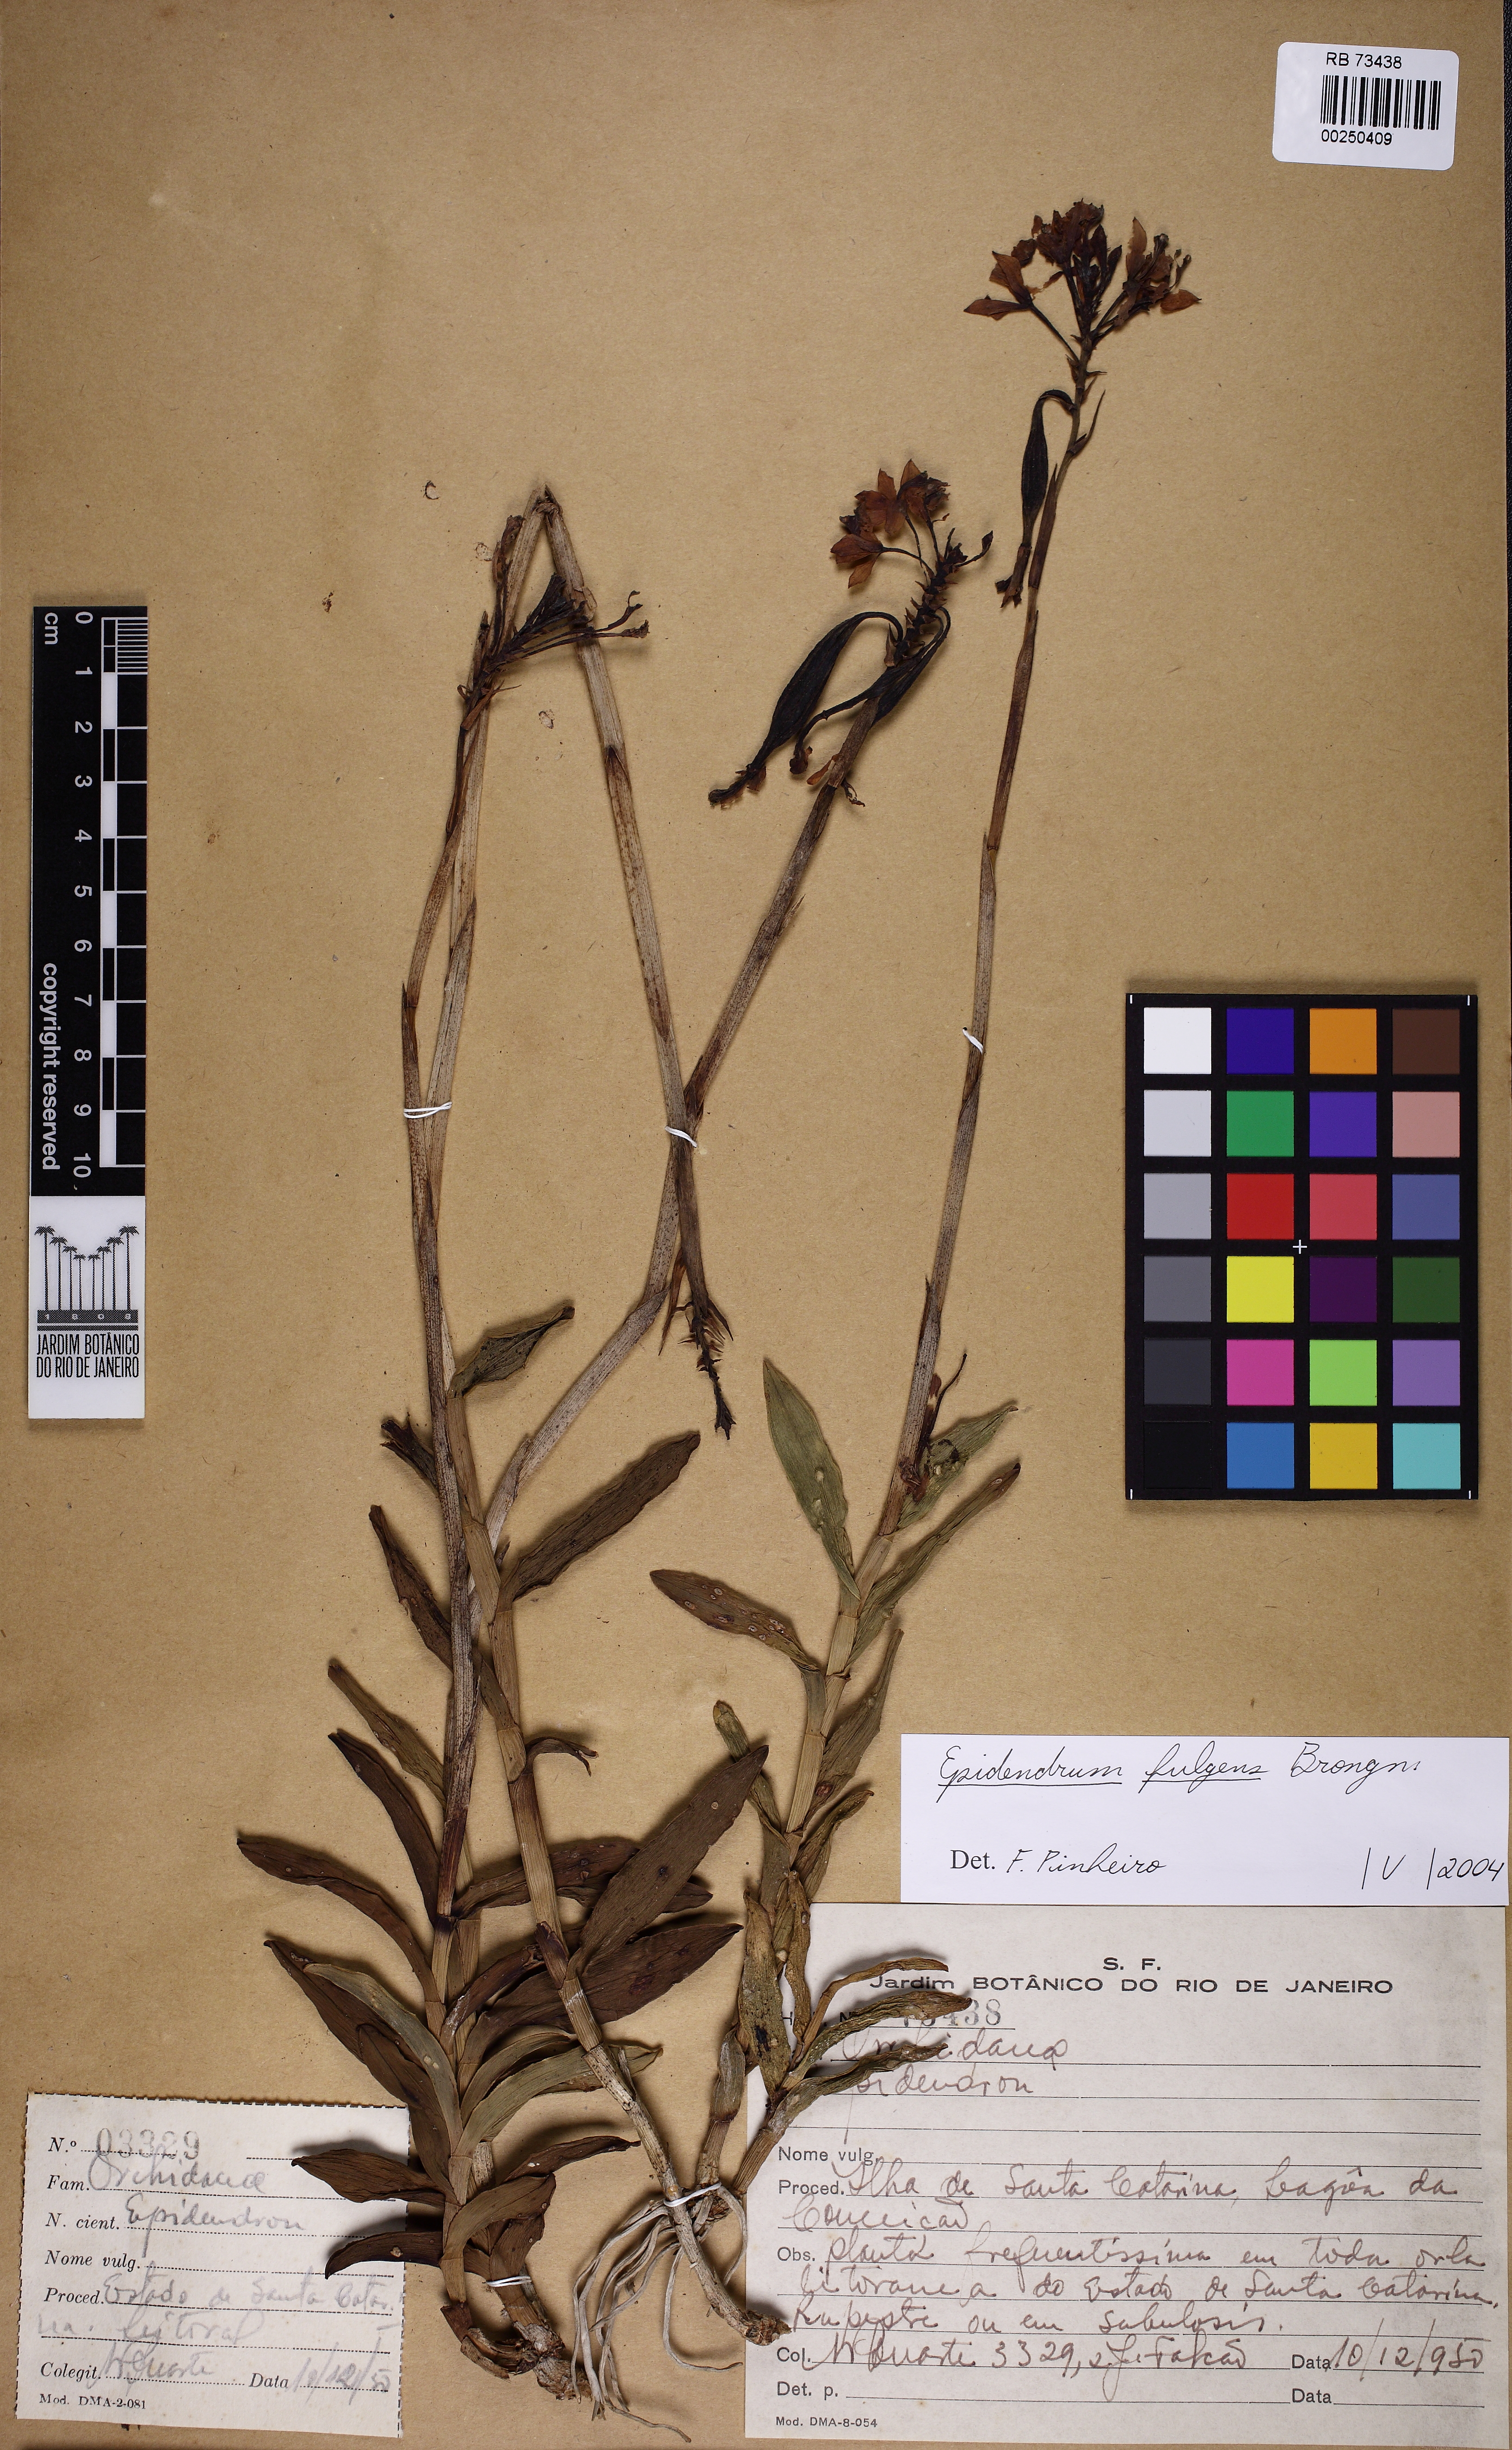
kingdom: Plantae
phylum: Tracheophyta
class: Liliopsida
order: Asparagales
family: Orchidaceae
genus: Epidendrum
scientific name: Epidendrum fulgens
